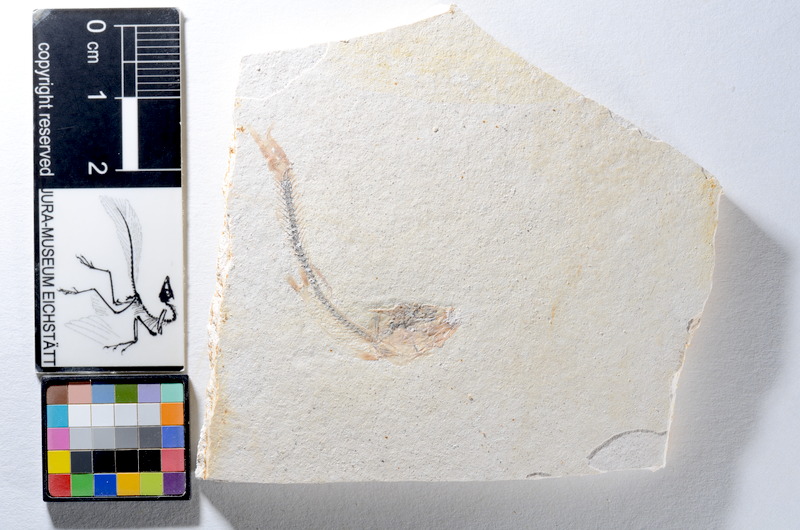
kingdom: Animalia
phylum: Chordata
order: Salmoniformes
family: Orthogonikleithridae
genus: Orthogonikleithrus
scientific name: Orthogonikleithrus hoelli
